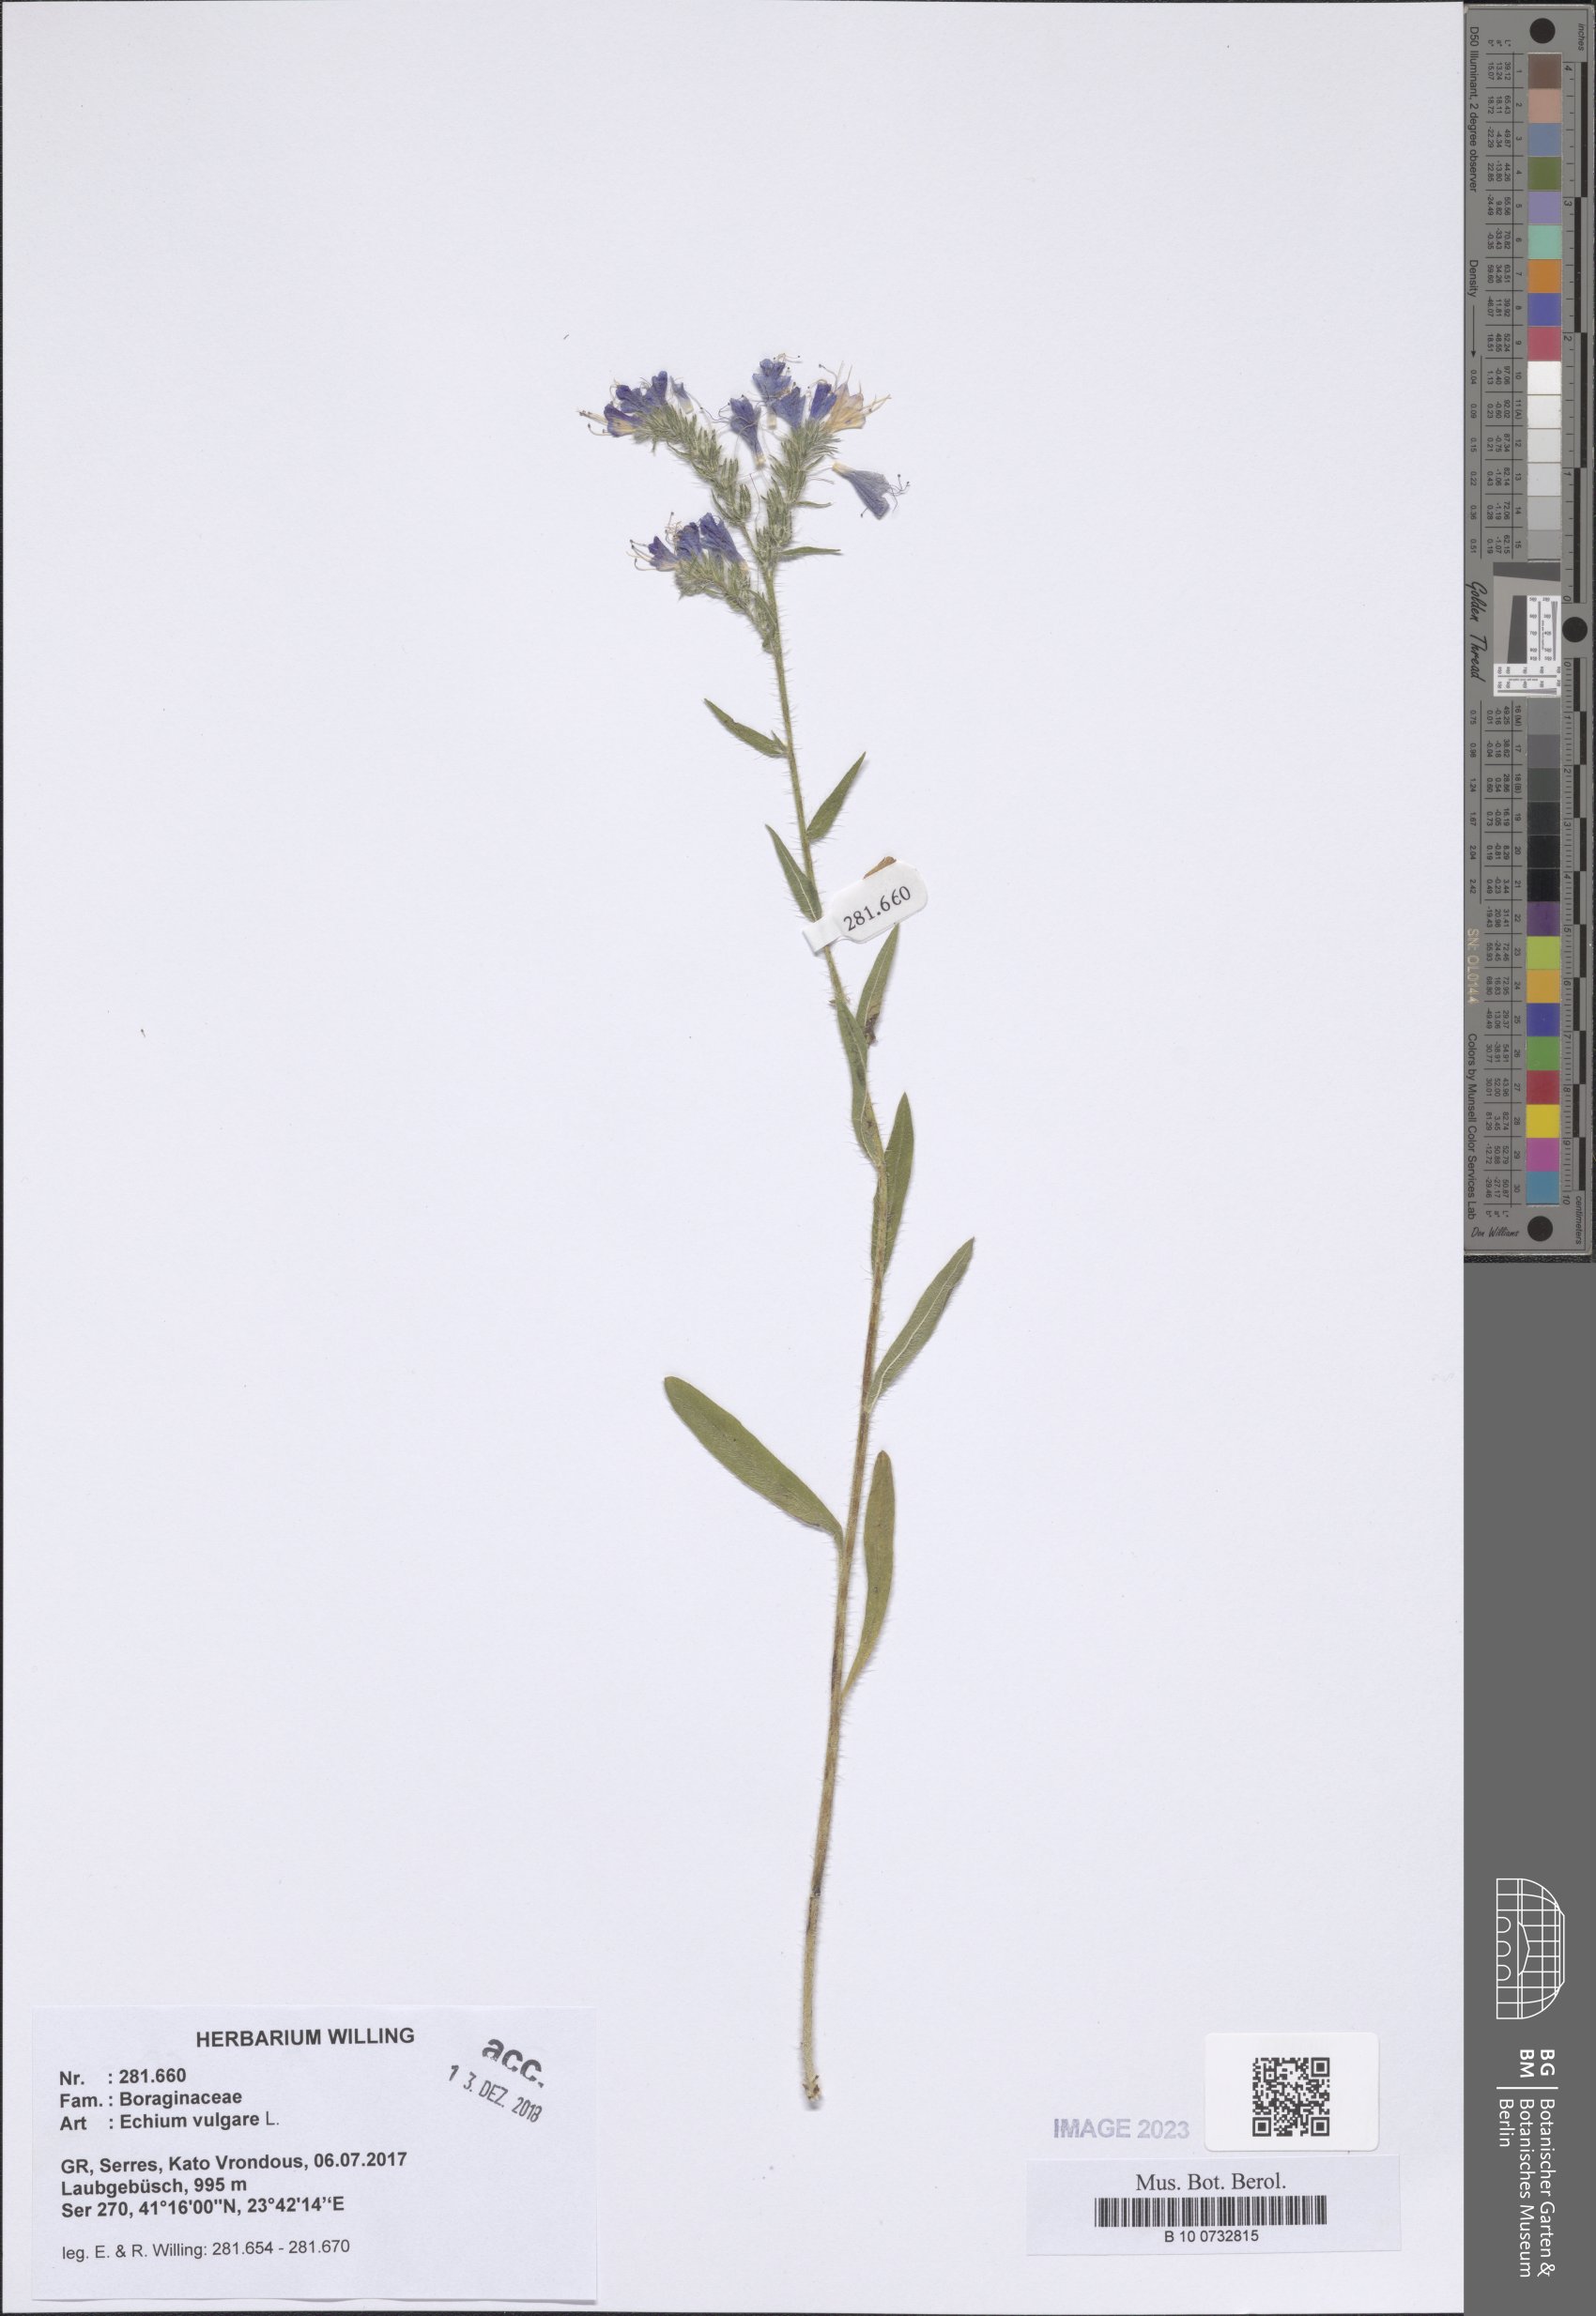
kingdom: Plantae
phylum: Tracheophyta
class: Magnoliopsida
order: Boraginales
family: Boraginaceae
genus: Echium
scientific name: Echium vulgare
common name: Common viper's bugloss
